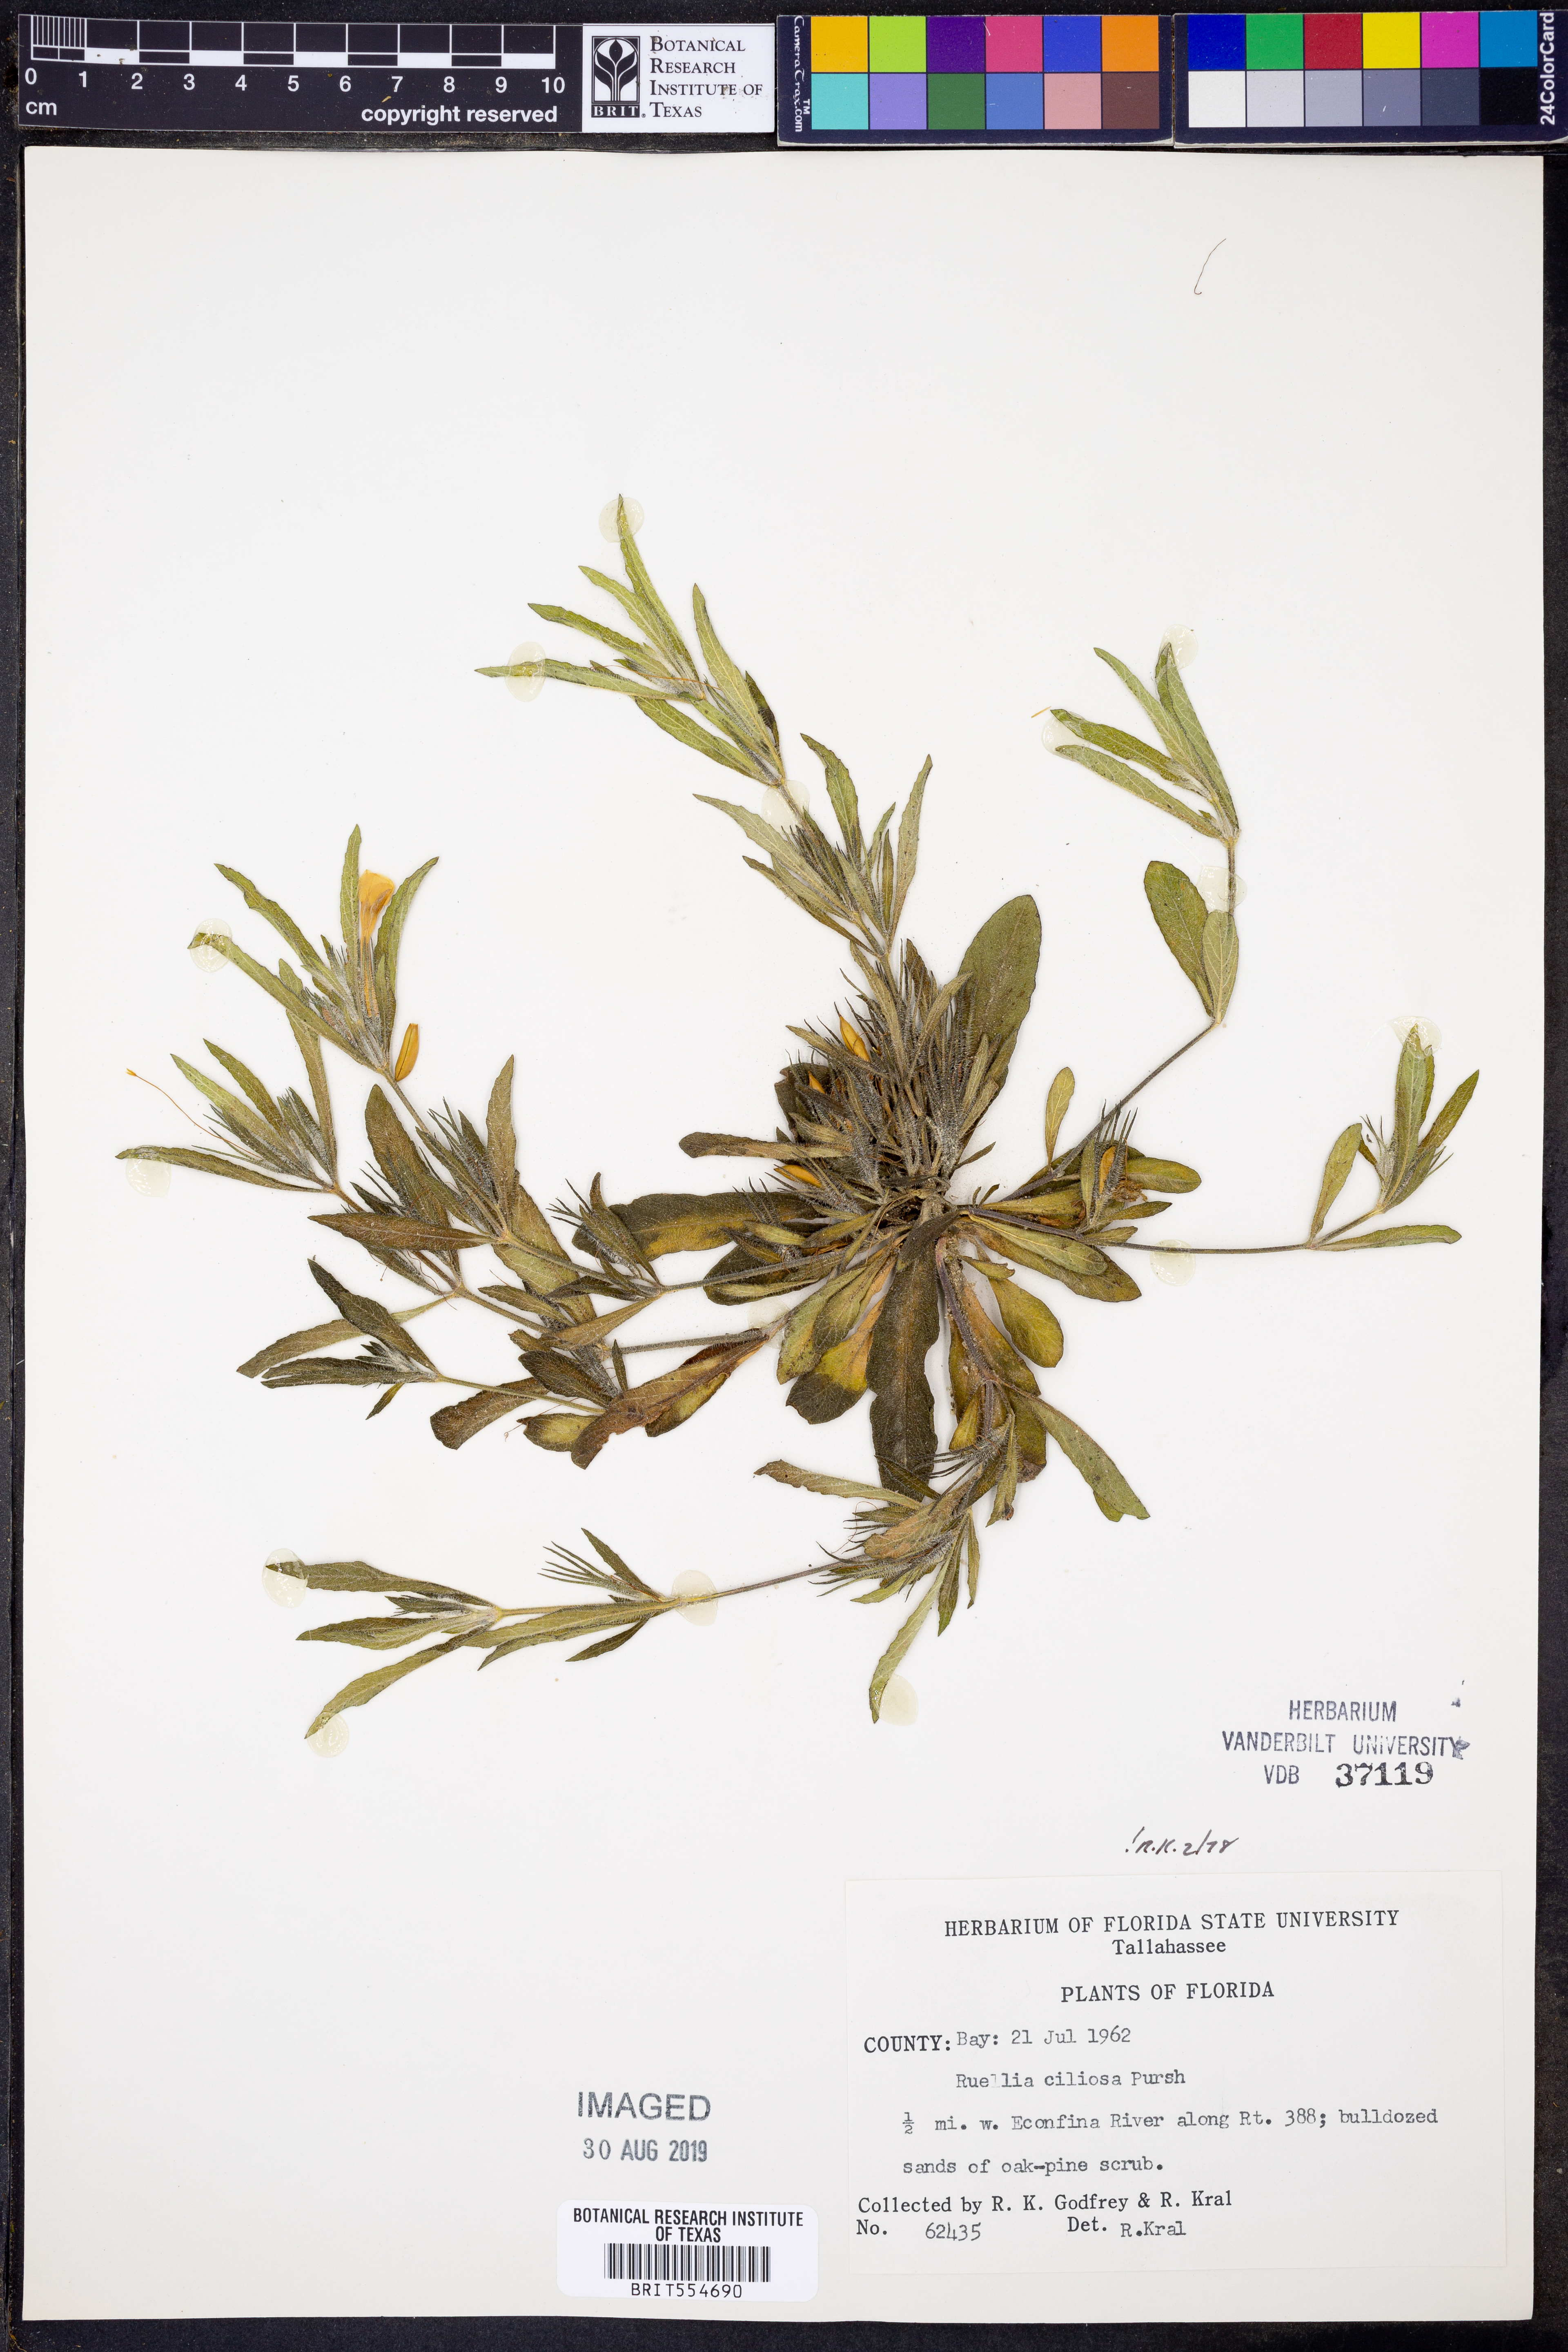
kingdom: Plantae
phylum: Tracheophyta
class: Magnoliopsida
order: Lamiales
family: Acanthaceae
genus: Ruellia
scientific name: Ruellia caroliniensis
